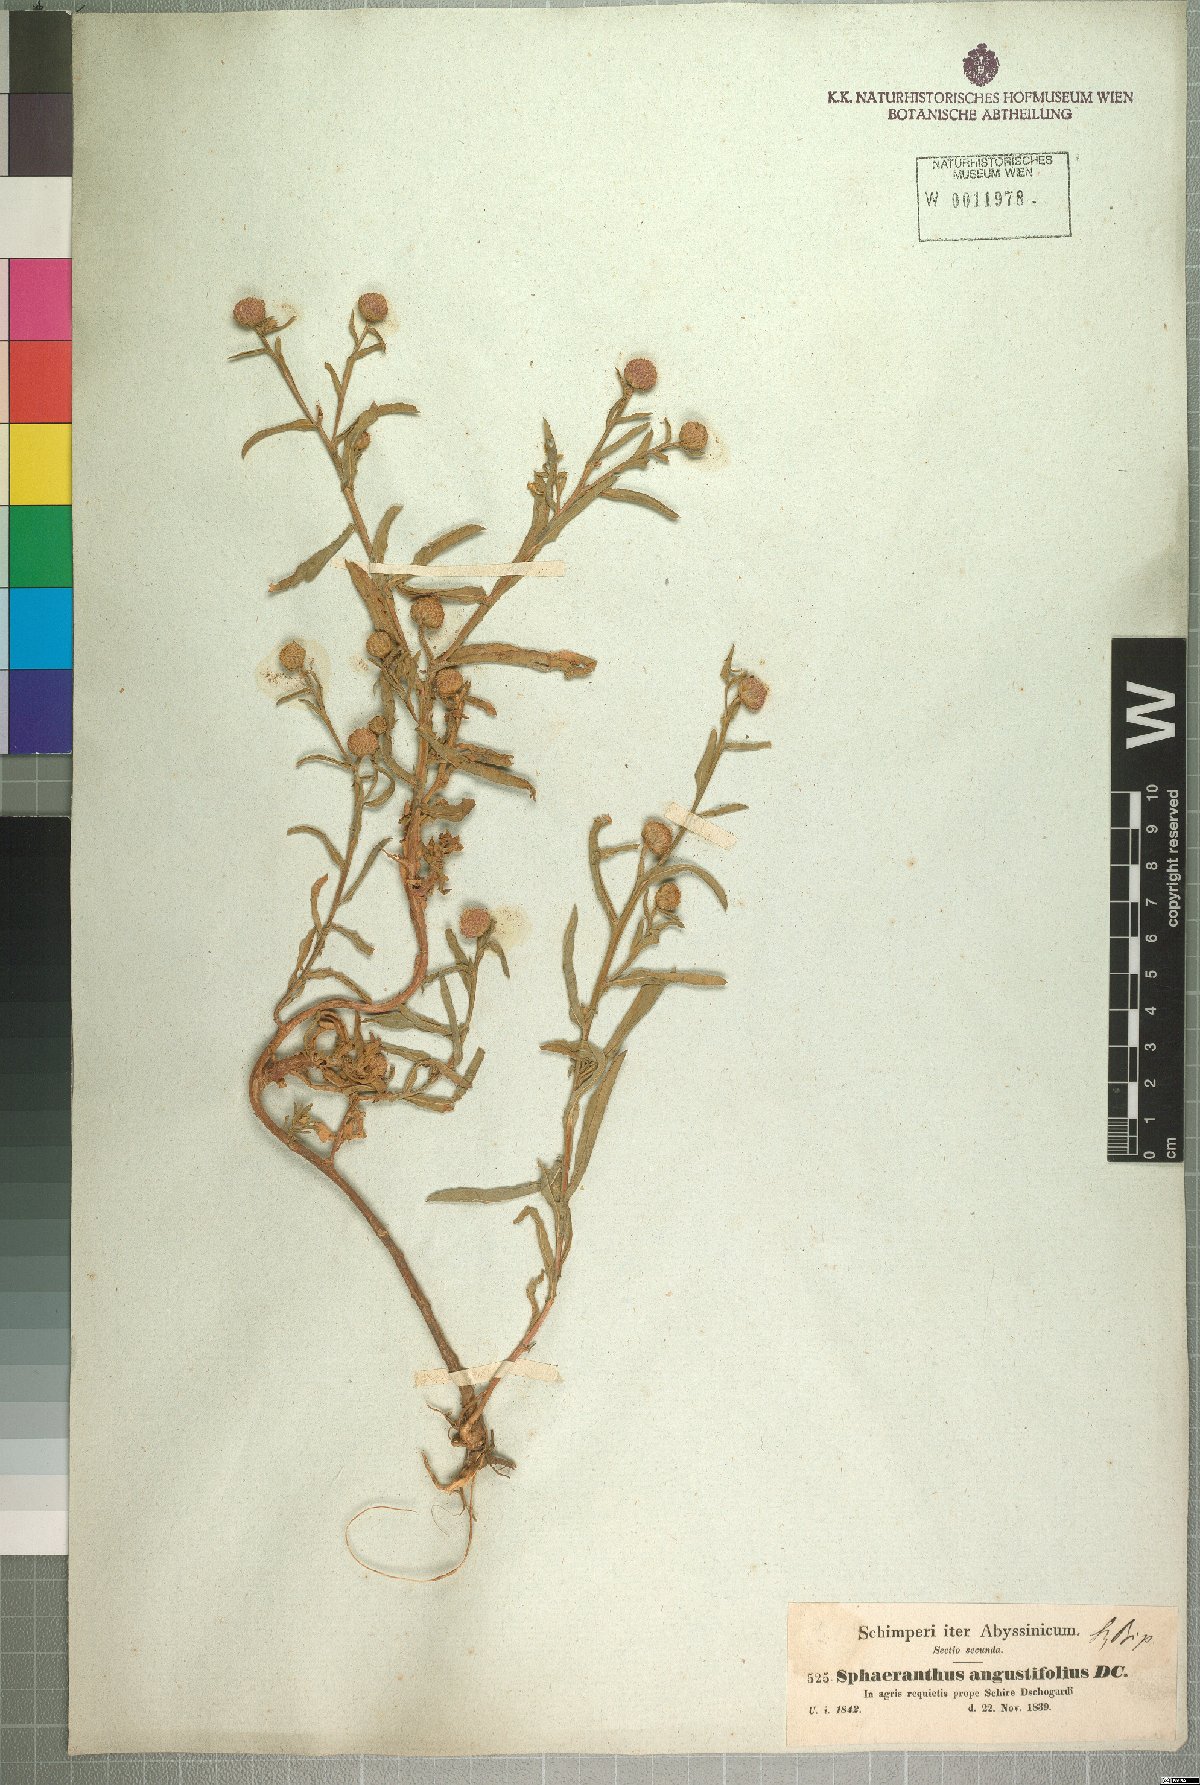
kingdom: Plantae
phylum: Tracheophyta
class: Magnoliopsida
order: Asterales
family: Asteraceae
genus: Sphaeranthus
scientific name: Sphaeranthus steetzii
